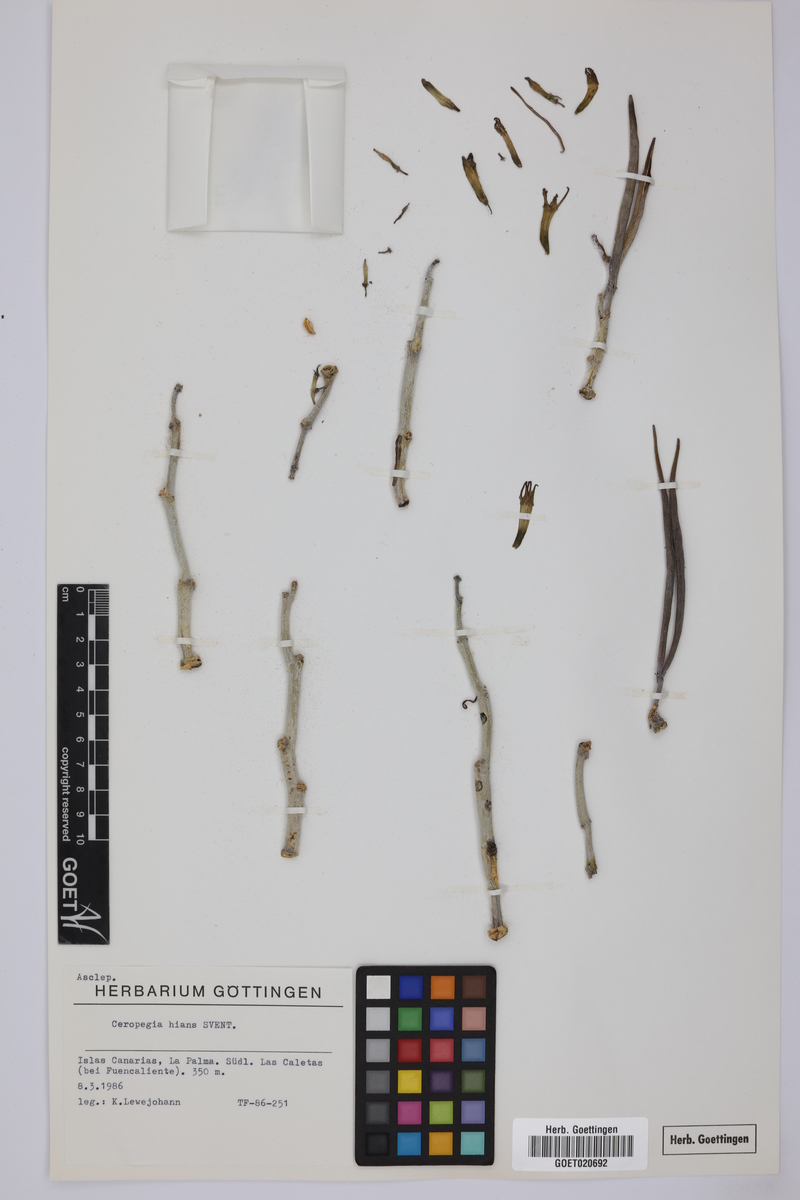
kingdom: Plantae
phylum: Tracheophyta
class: Magnoliopsida
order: Gentianales
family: Apocynaceae
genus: Ceropegia
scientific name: Ceropegia dichotoma
